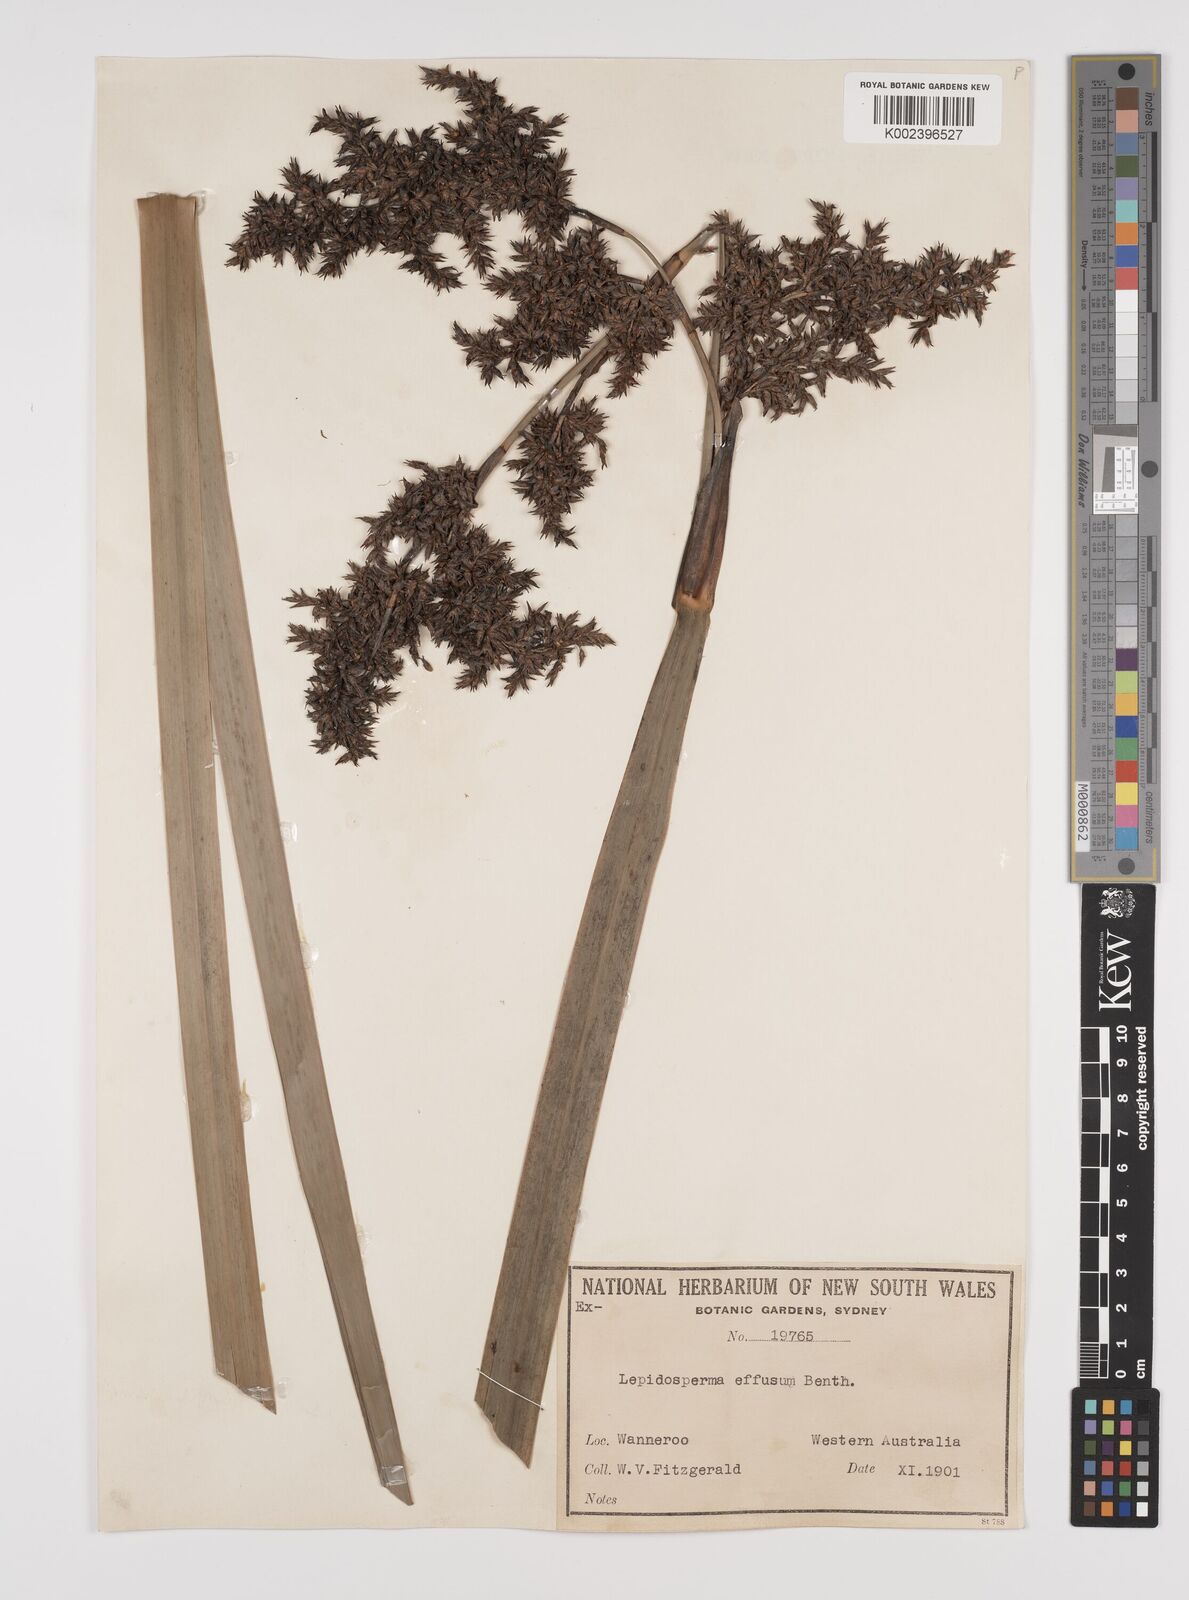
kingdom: Plantae
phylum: Tracheophyta
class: Liliopsida
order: Poales
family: Cyperaceae
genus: Lepidosperma
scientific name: Lepidosperma effusum
